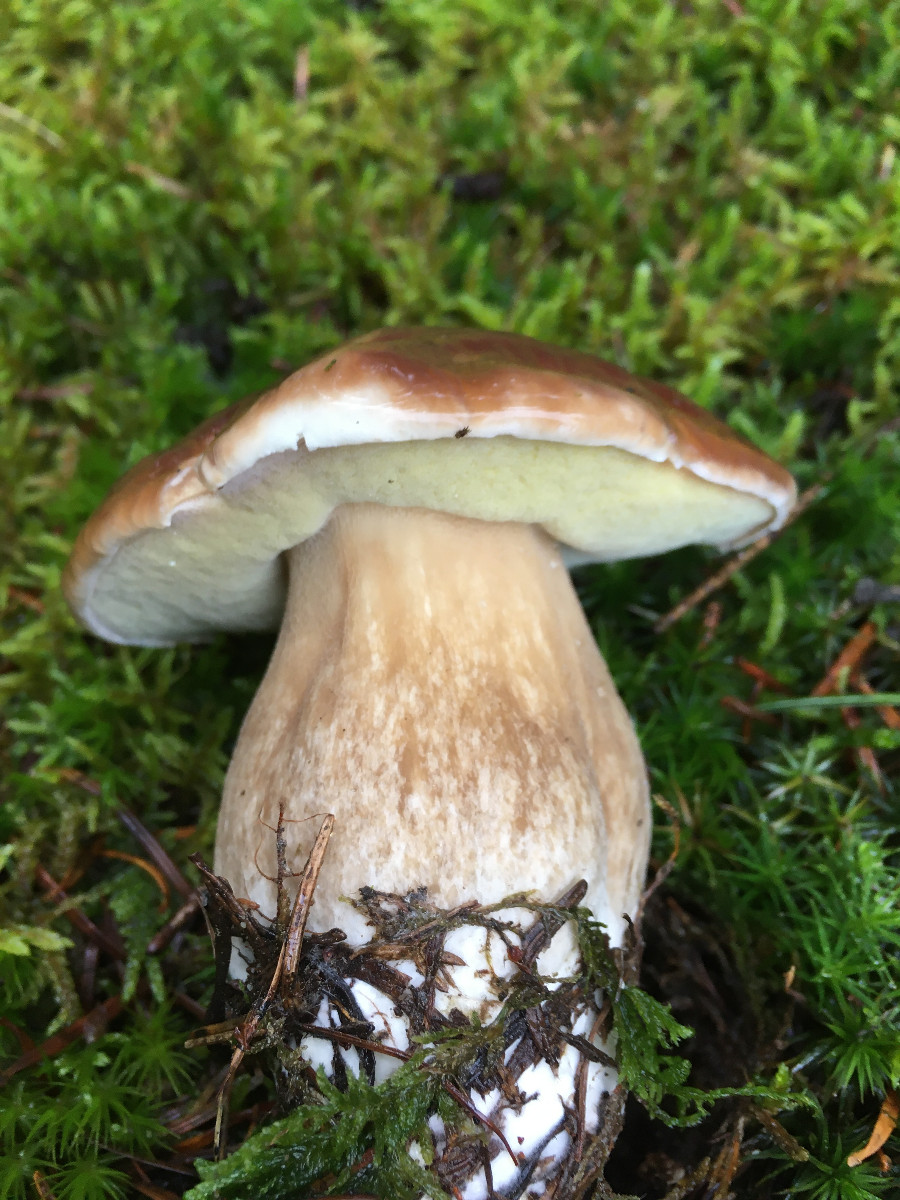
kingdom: Fungi
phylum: Basidiomycota
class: Agaricomycetes
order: Boletales
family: Boletaceae
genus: Boletus
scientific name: Boletus edulis
